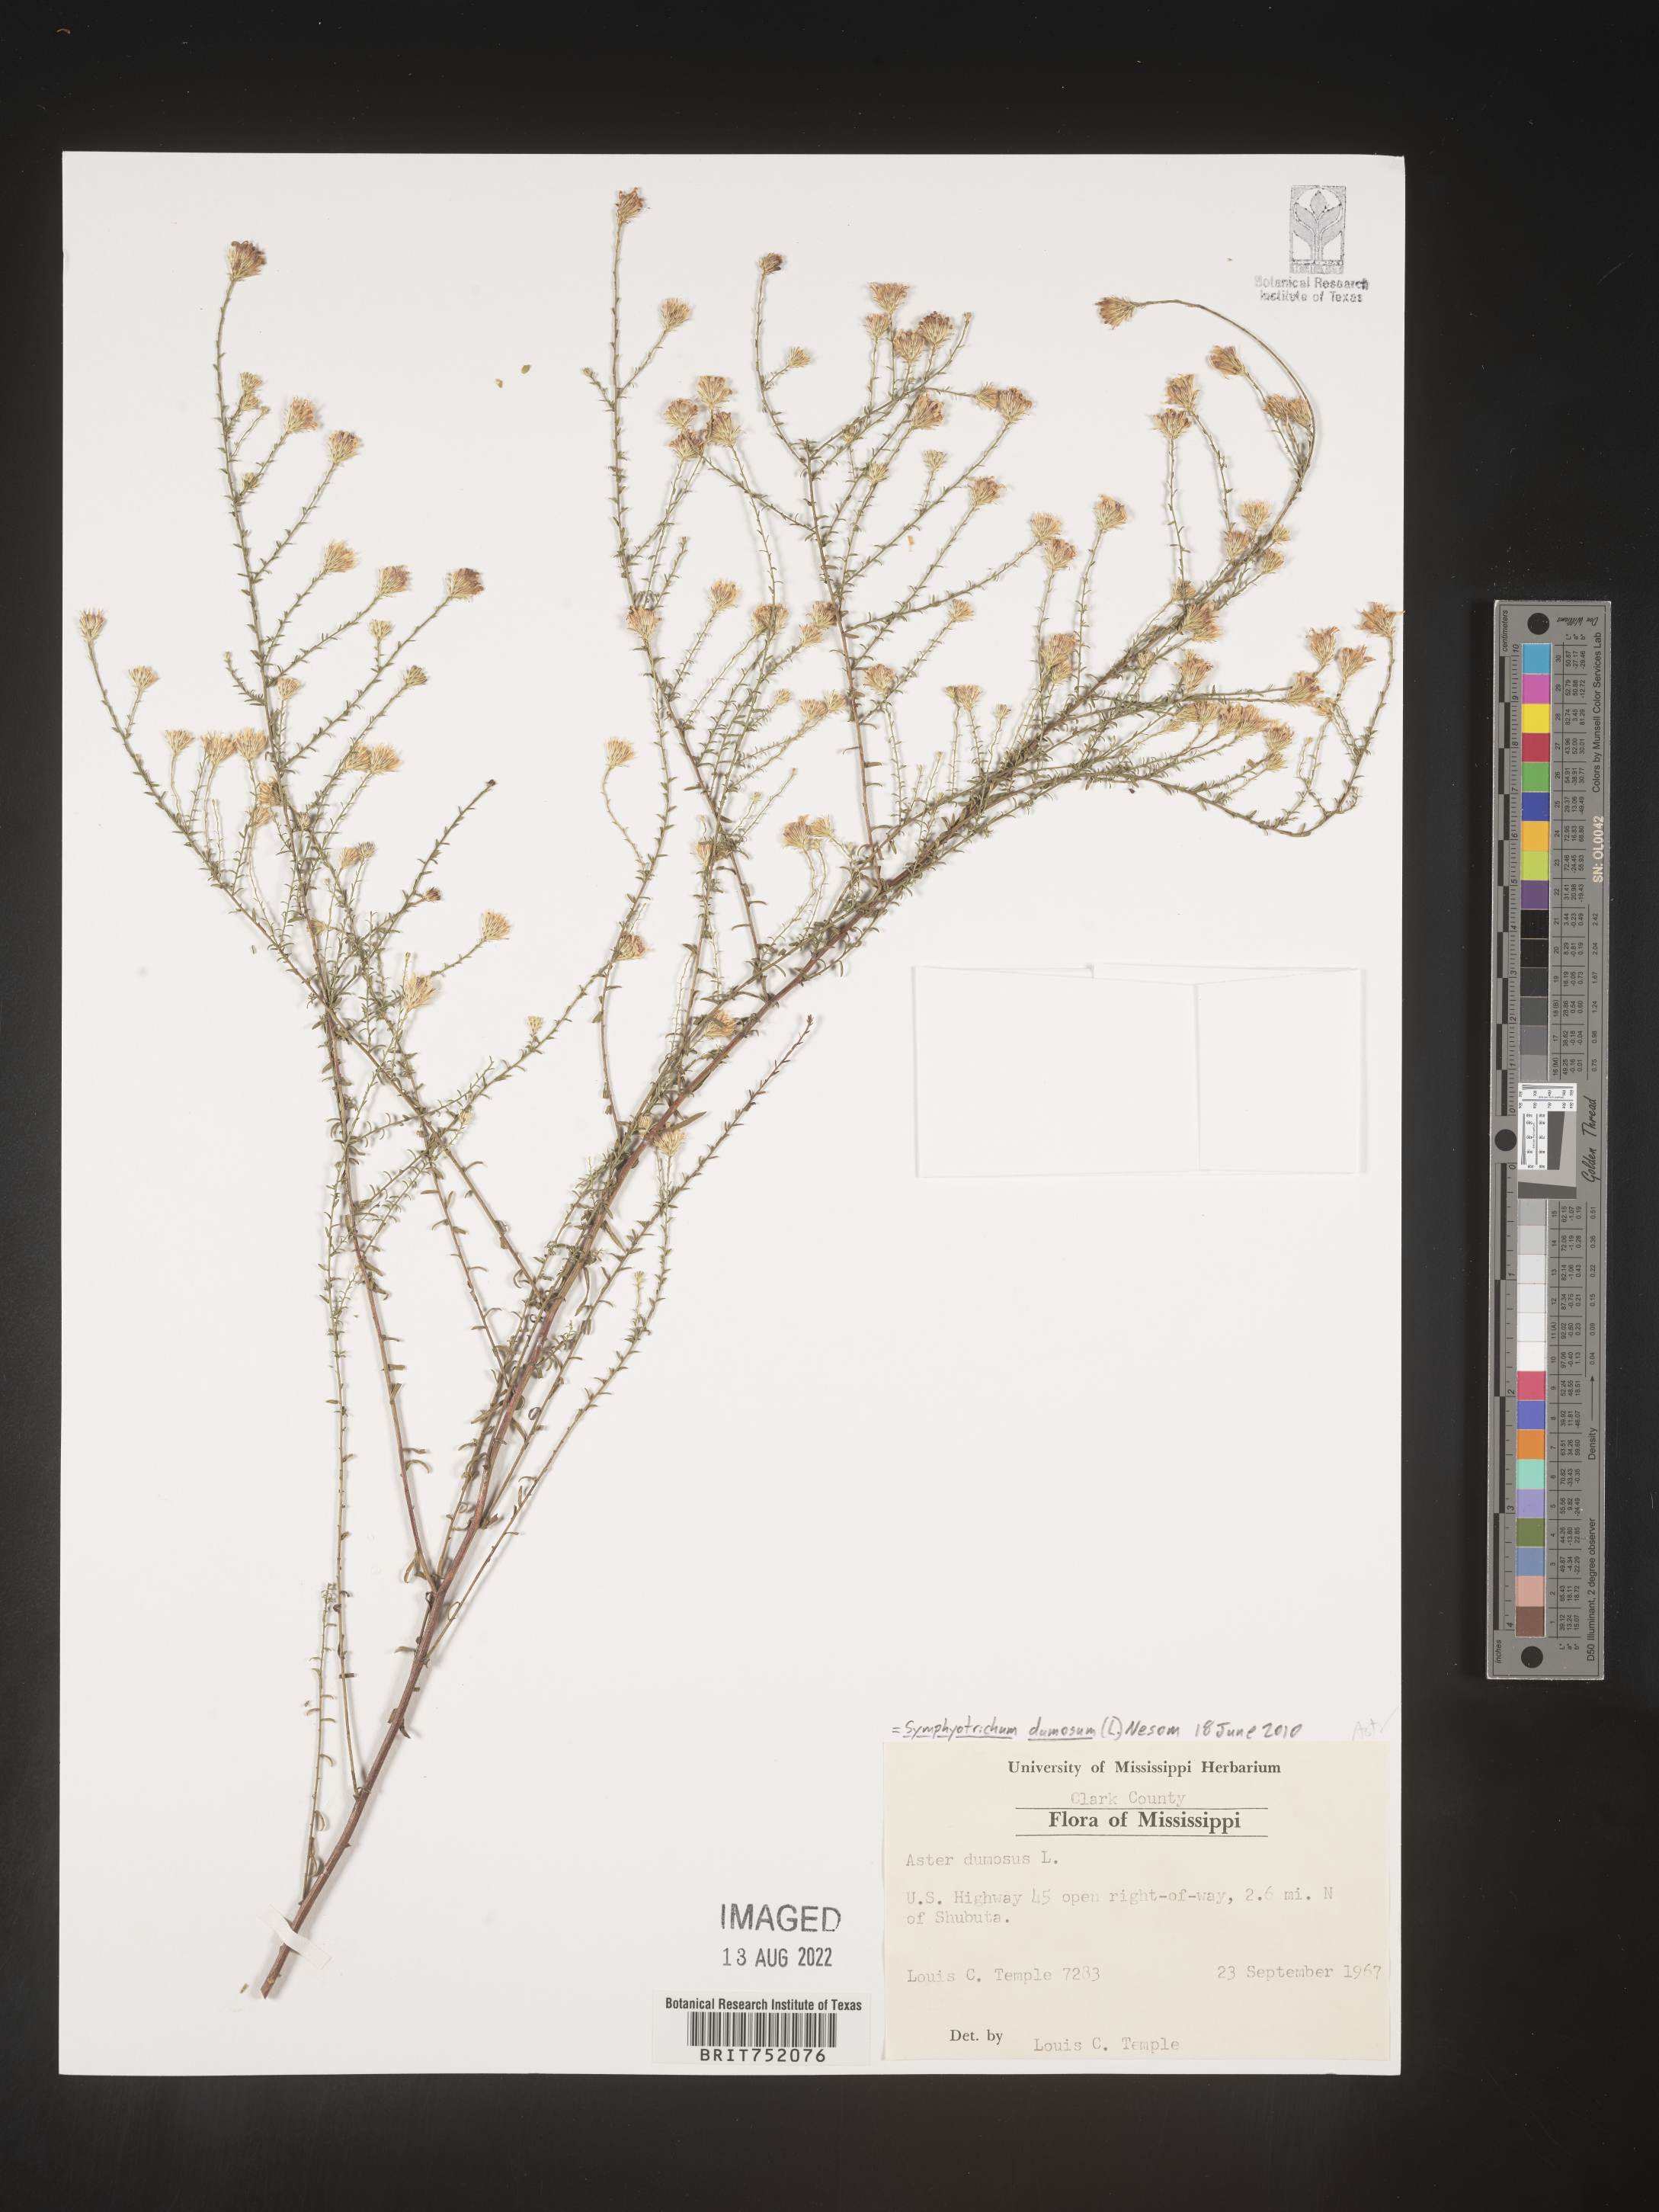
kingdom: Plantae
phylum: Tracheophyta
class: Magnoliopsida
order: Asterales
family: Asteraceae
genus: Symphyotrichum
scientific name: Symphyotrichum dumosum
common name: Bushy aster
